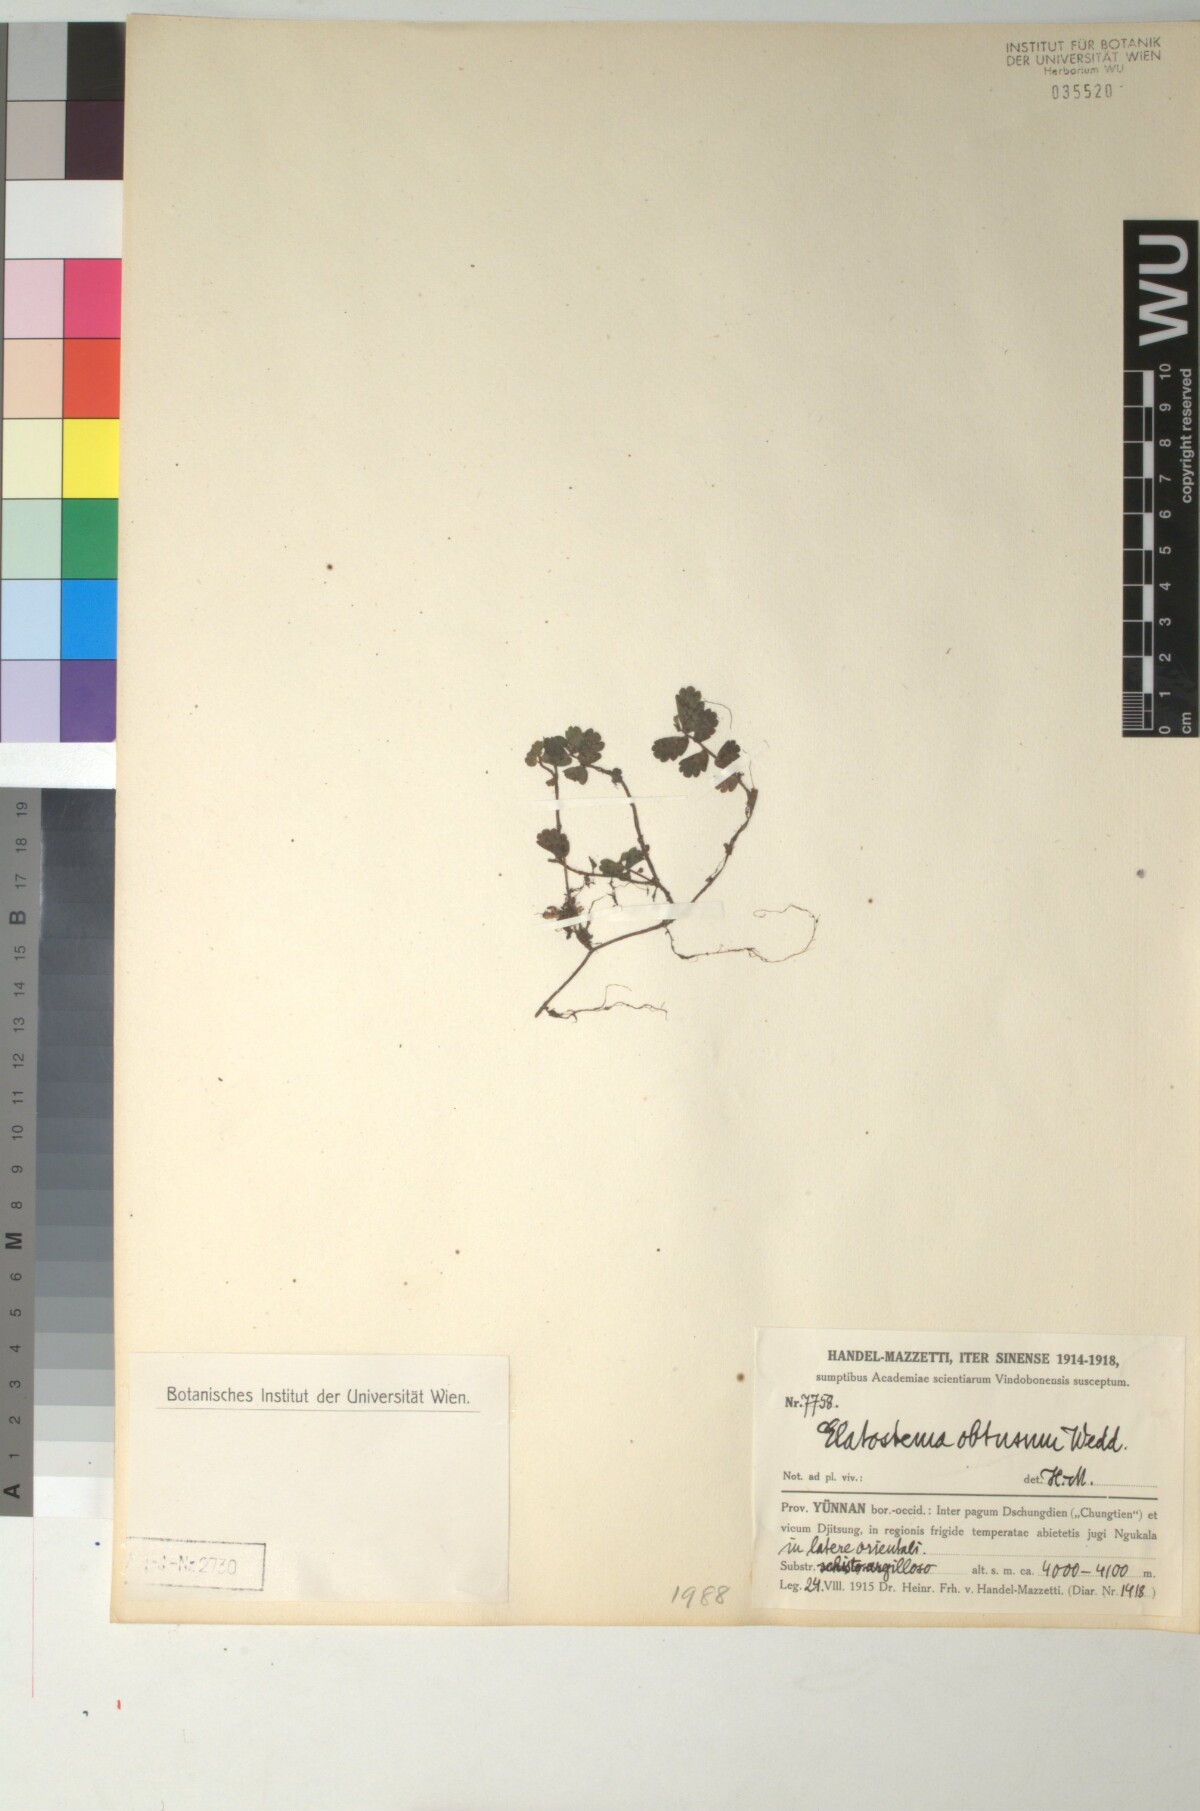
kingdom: Plantae
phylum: Tracheophyta
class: Magnoliopsida
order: Rosales
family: Urticaceae
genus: Elatostema
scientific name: Elatostema obtusum
